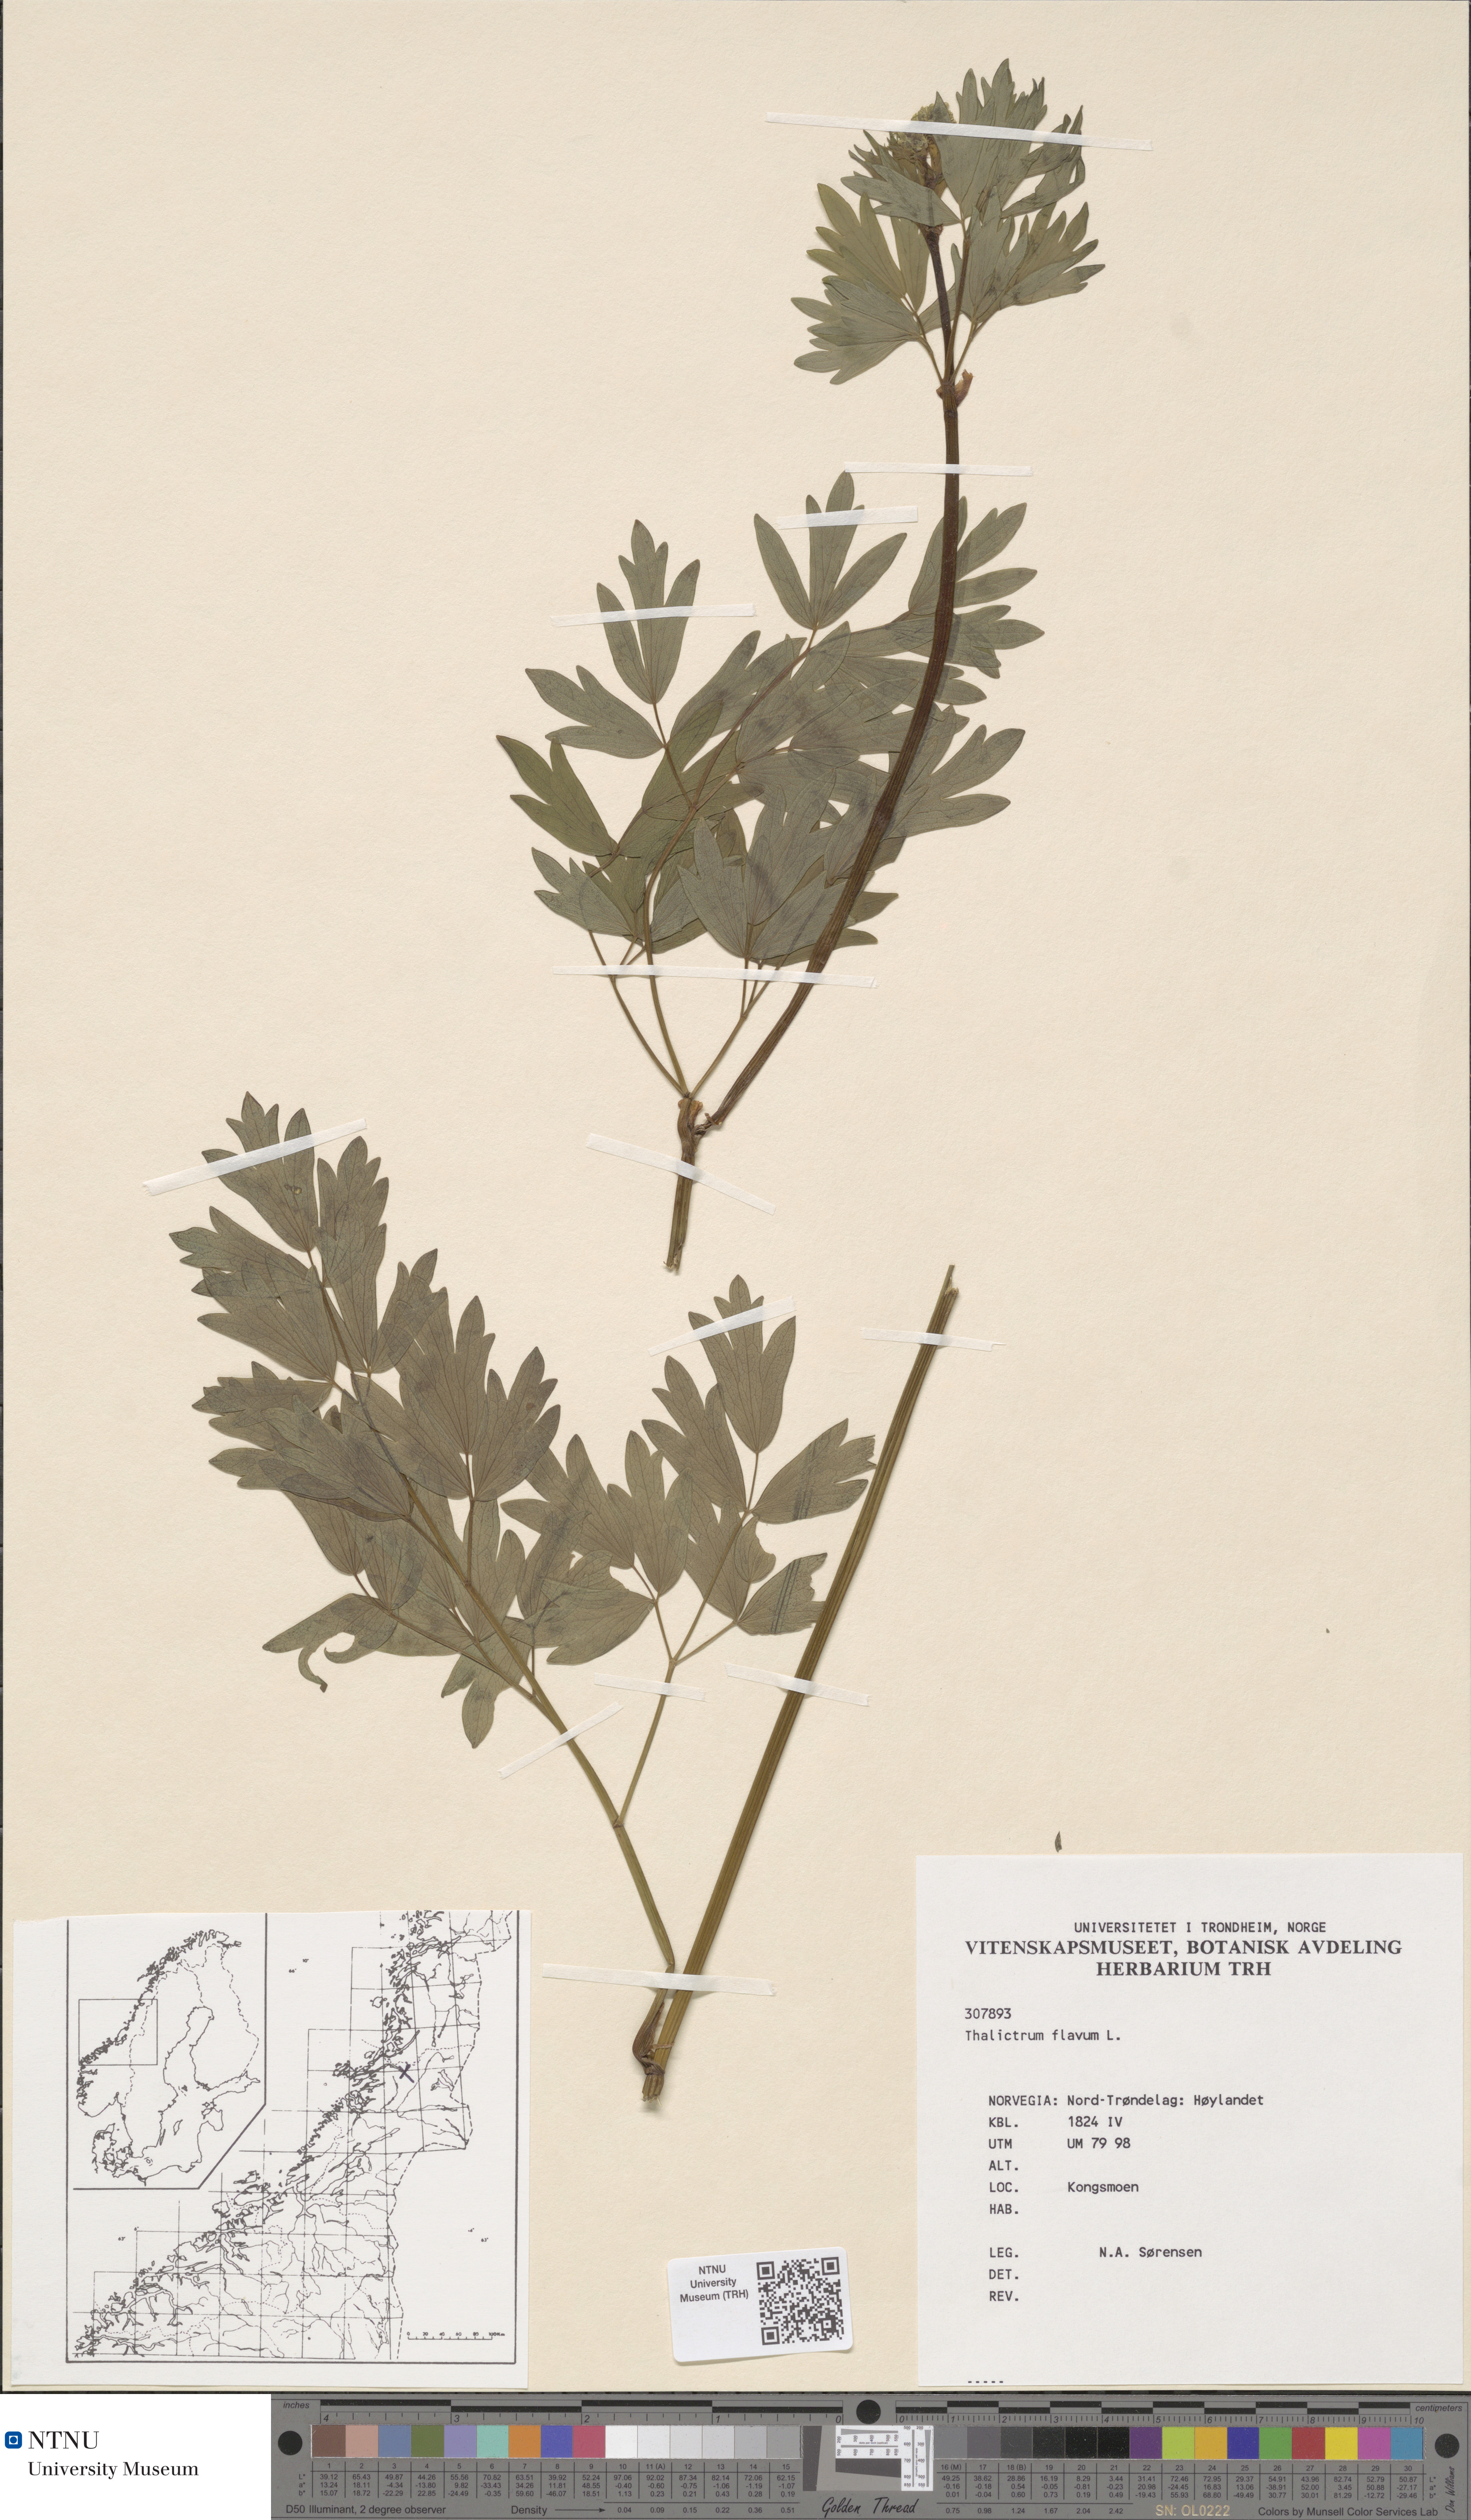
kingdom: Plantae
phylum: Tracheophyta
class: Magnoliopsida
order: Ranunculales
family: Ranunculaceae
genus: Thalictrum
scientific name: Thalictrum flavum
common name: Common meadow-rue
